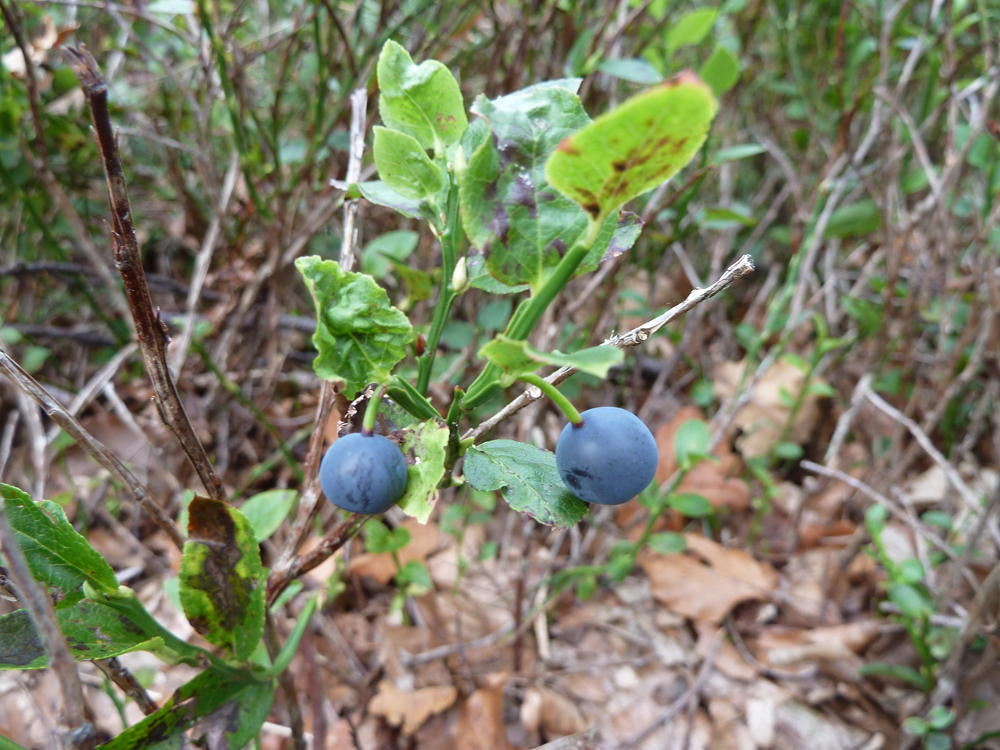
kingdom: Plantae
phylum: Tracheophyta
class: Magnoliopsida
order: Ericales
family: Ericaceae
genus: Vaccinium
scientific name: Vaccinium myrtillus
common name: Bilberry
